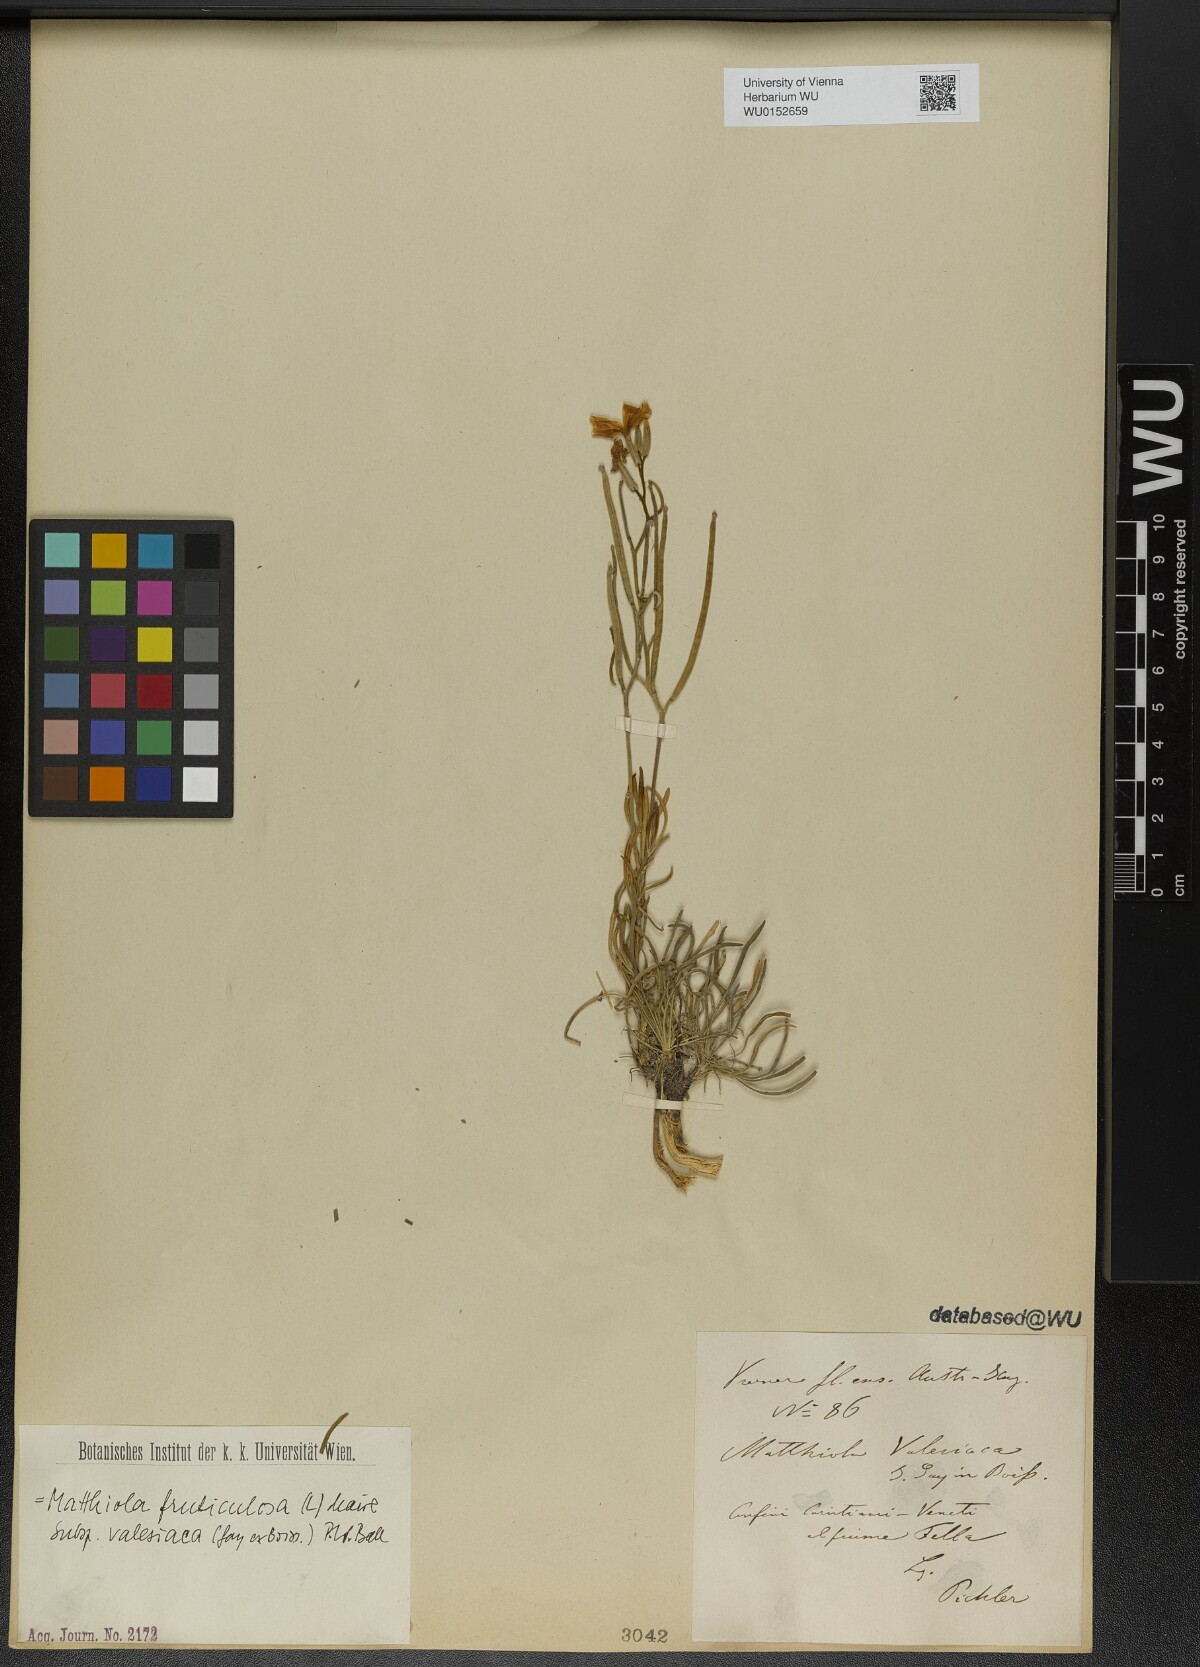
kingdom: Plantae
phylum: Tracheophyta
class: Magnoliopsida
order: Brassicales
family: Brassicaceae
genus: Matthiola
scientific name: Matthiola fruticulosa
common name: Sad stock
